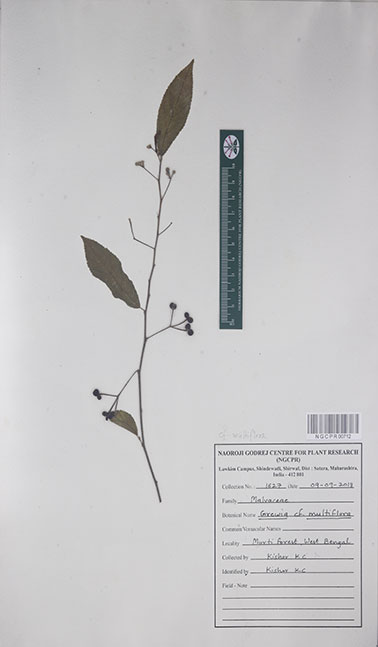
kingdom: Plantae
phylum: Tracheophyta
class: Magnoliopsida
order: Malvales
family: Malvaceae
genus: Grewia
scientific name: Grewia multiflora
